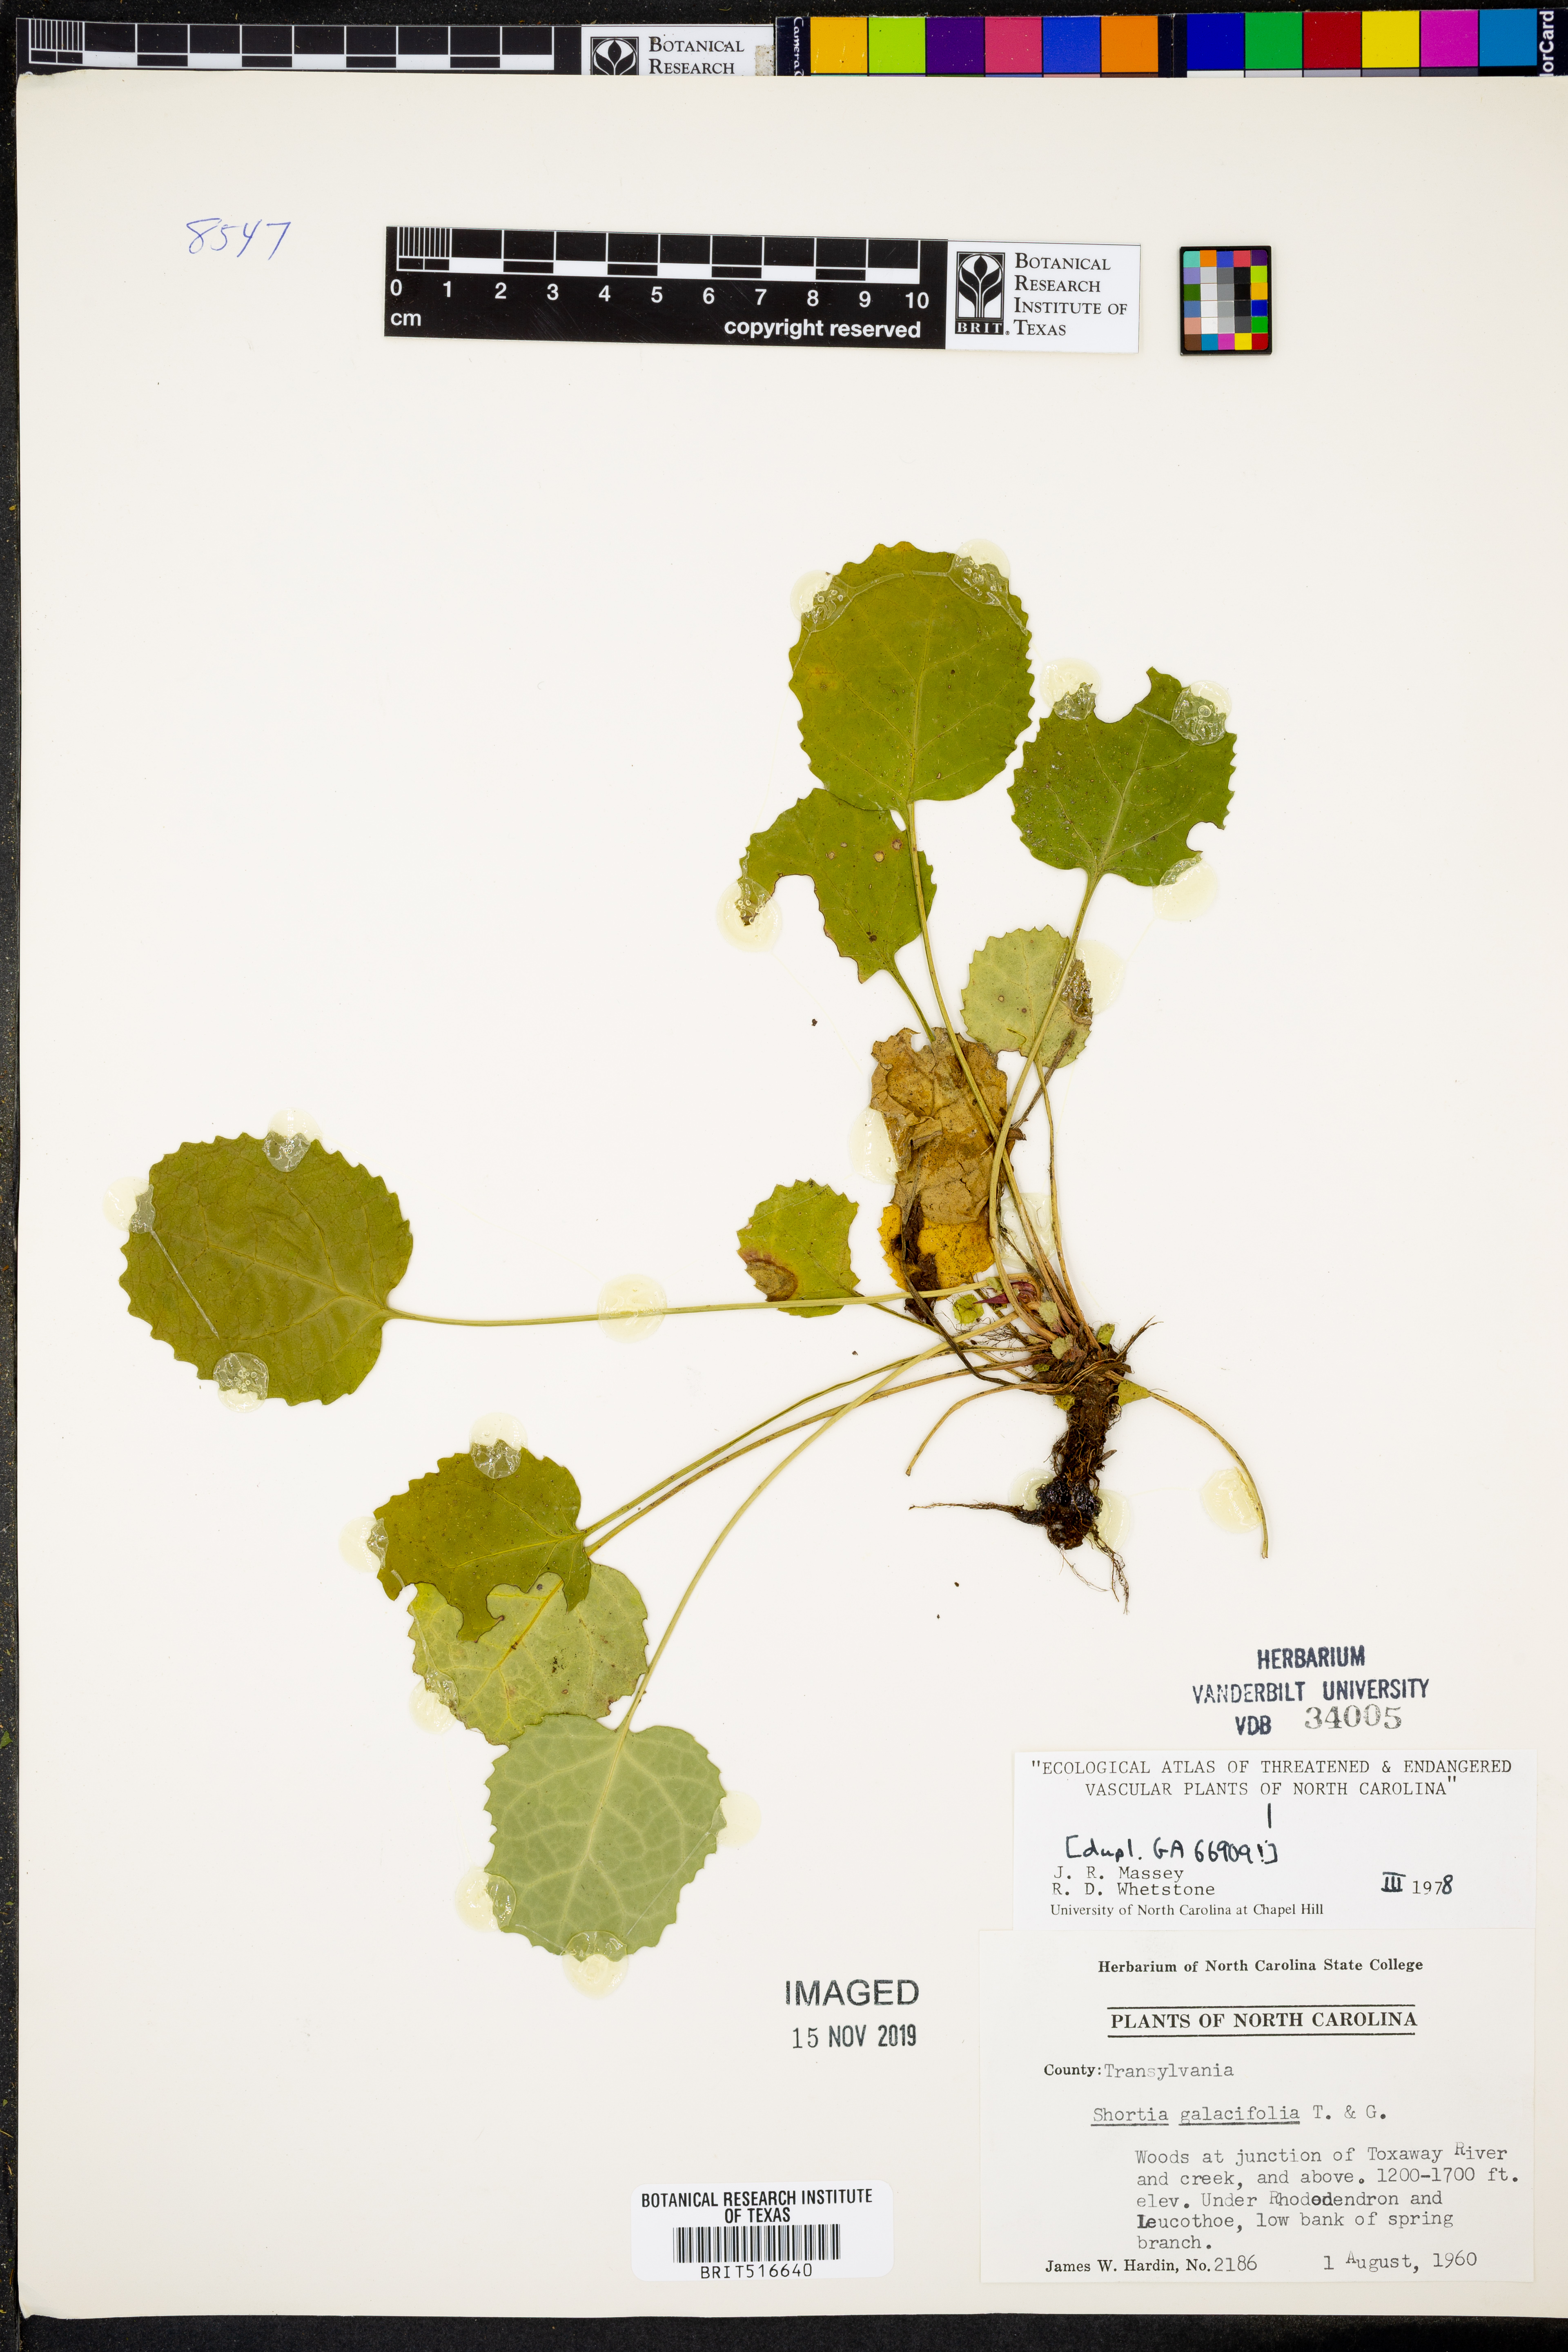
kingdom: Plantae
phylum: Tracheophyta
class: Magnoliopsida
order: Ericales
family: Diapensiaceae
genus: Shortia
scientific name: Shortia galacifolia
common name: Shortia
